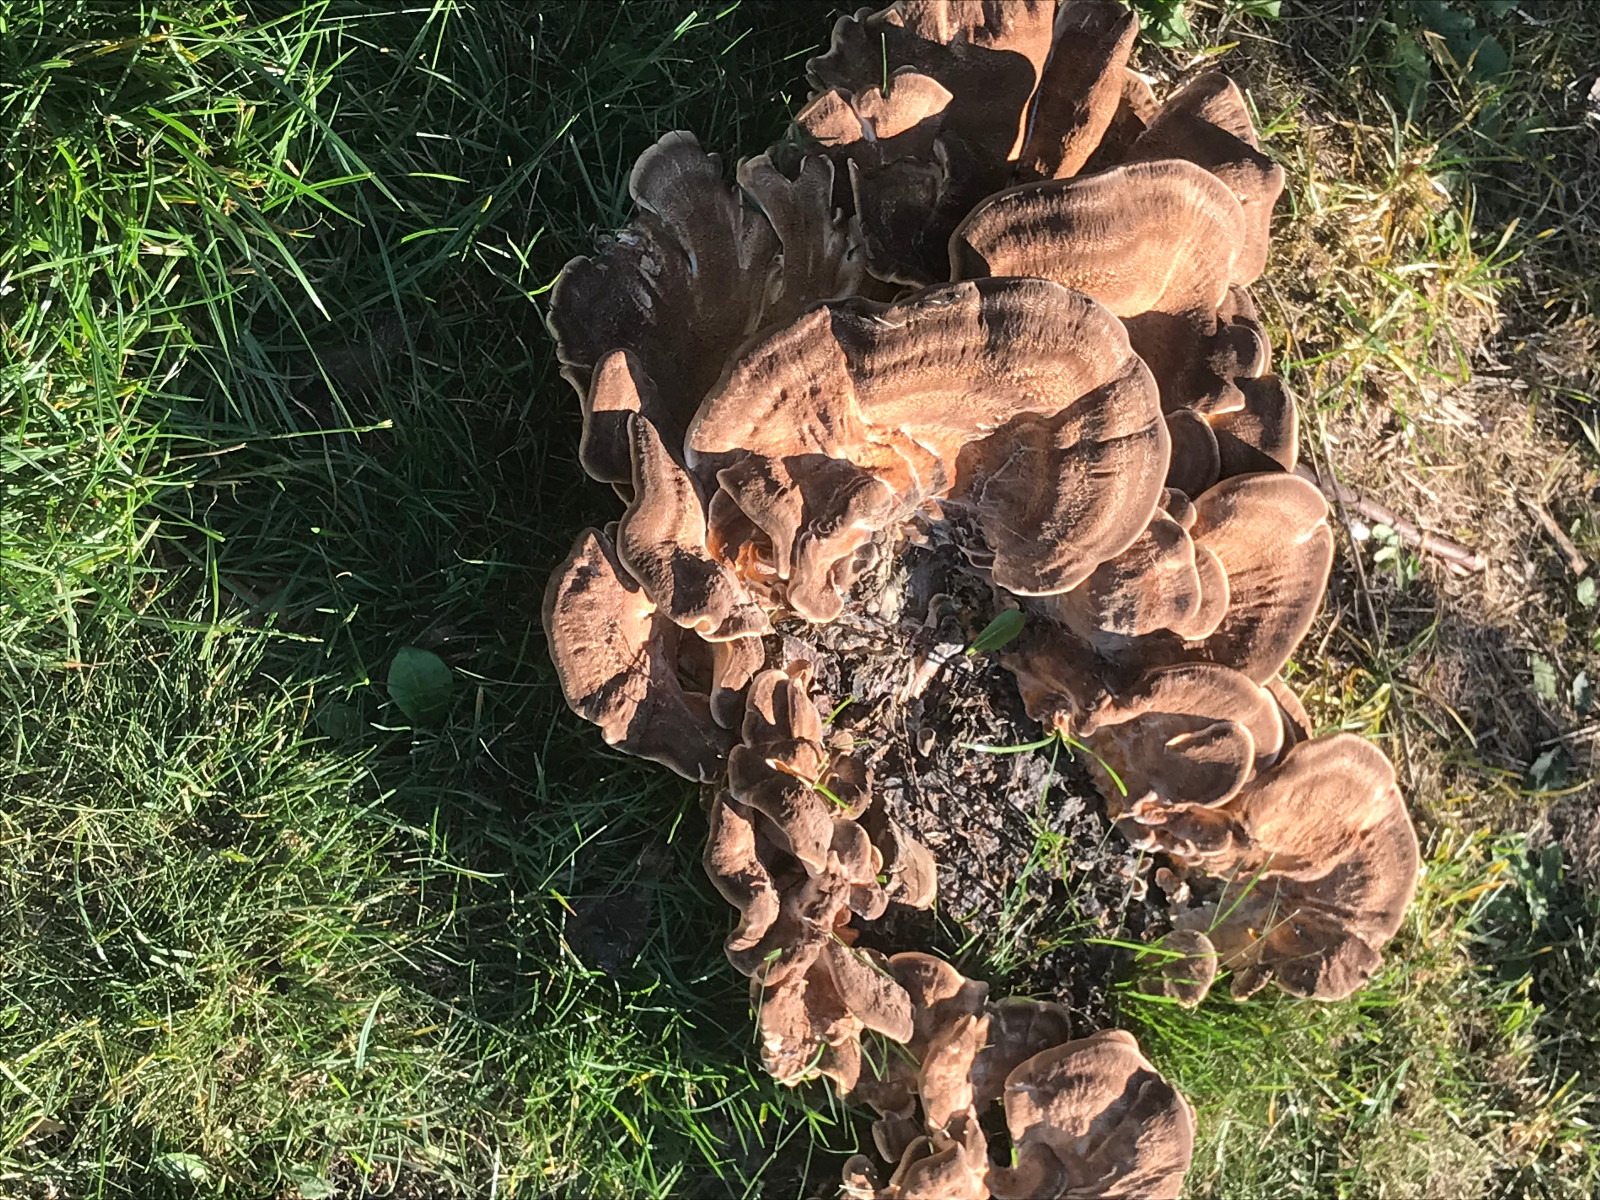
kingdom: Fungi
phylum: Basidiomycota
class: Agaricomycetes
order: Polyporales
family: Meripilaceae
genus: Meripilus
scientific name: Meripilus giganteus
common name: kæmpeporesvamp
